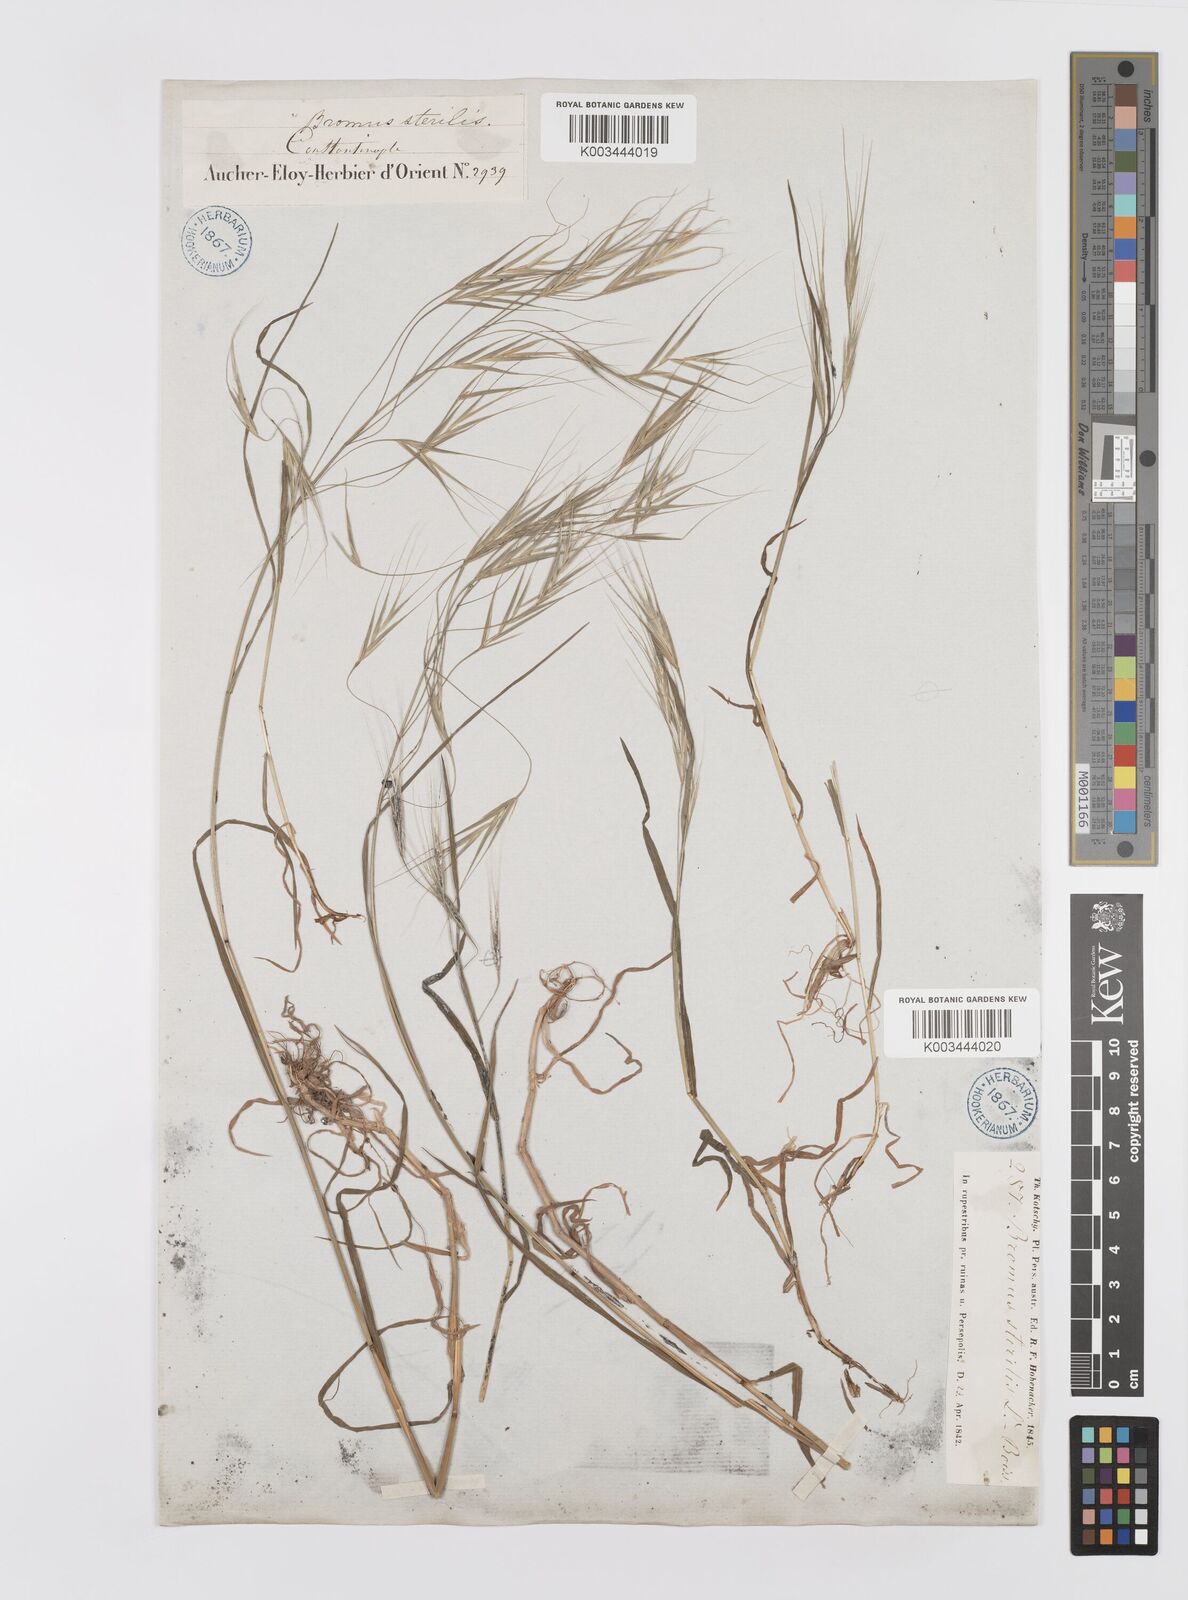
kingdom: Plantae
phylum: Tracheophyta
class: Liliopsida
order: Poales
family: Poaceae
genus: Bromus
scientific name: Bromus sterilis
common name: Poverty brome
